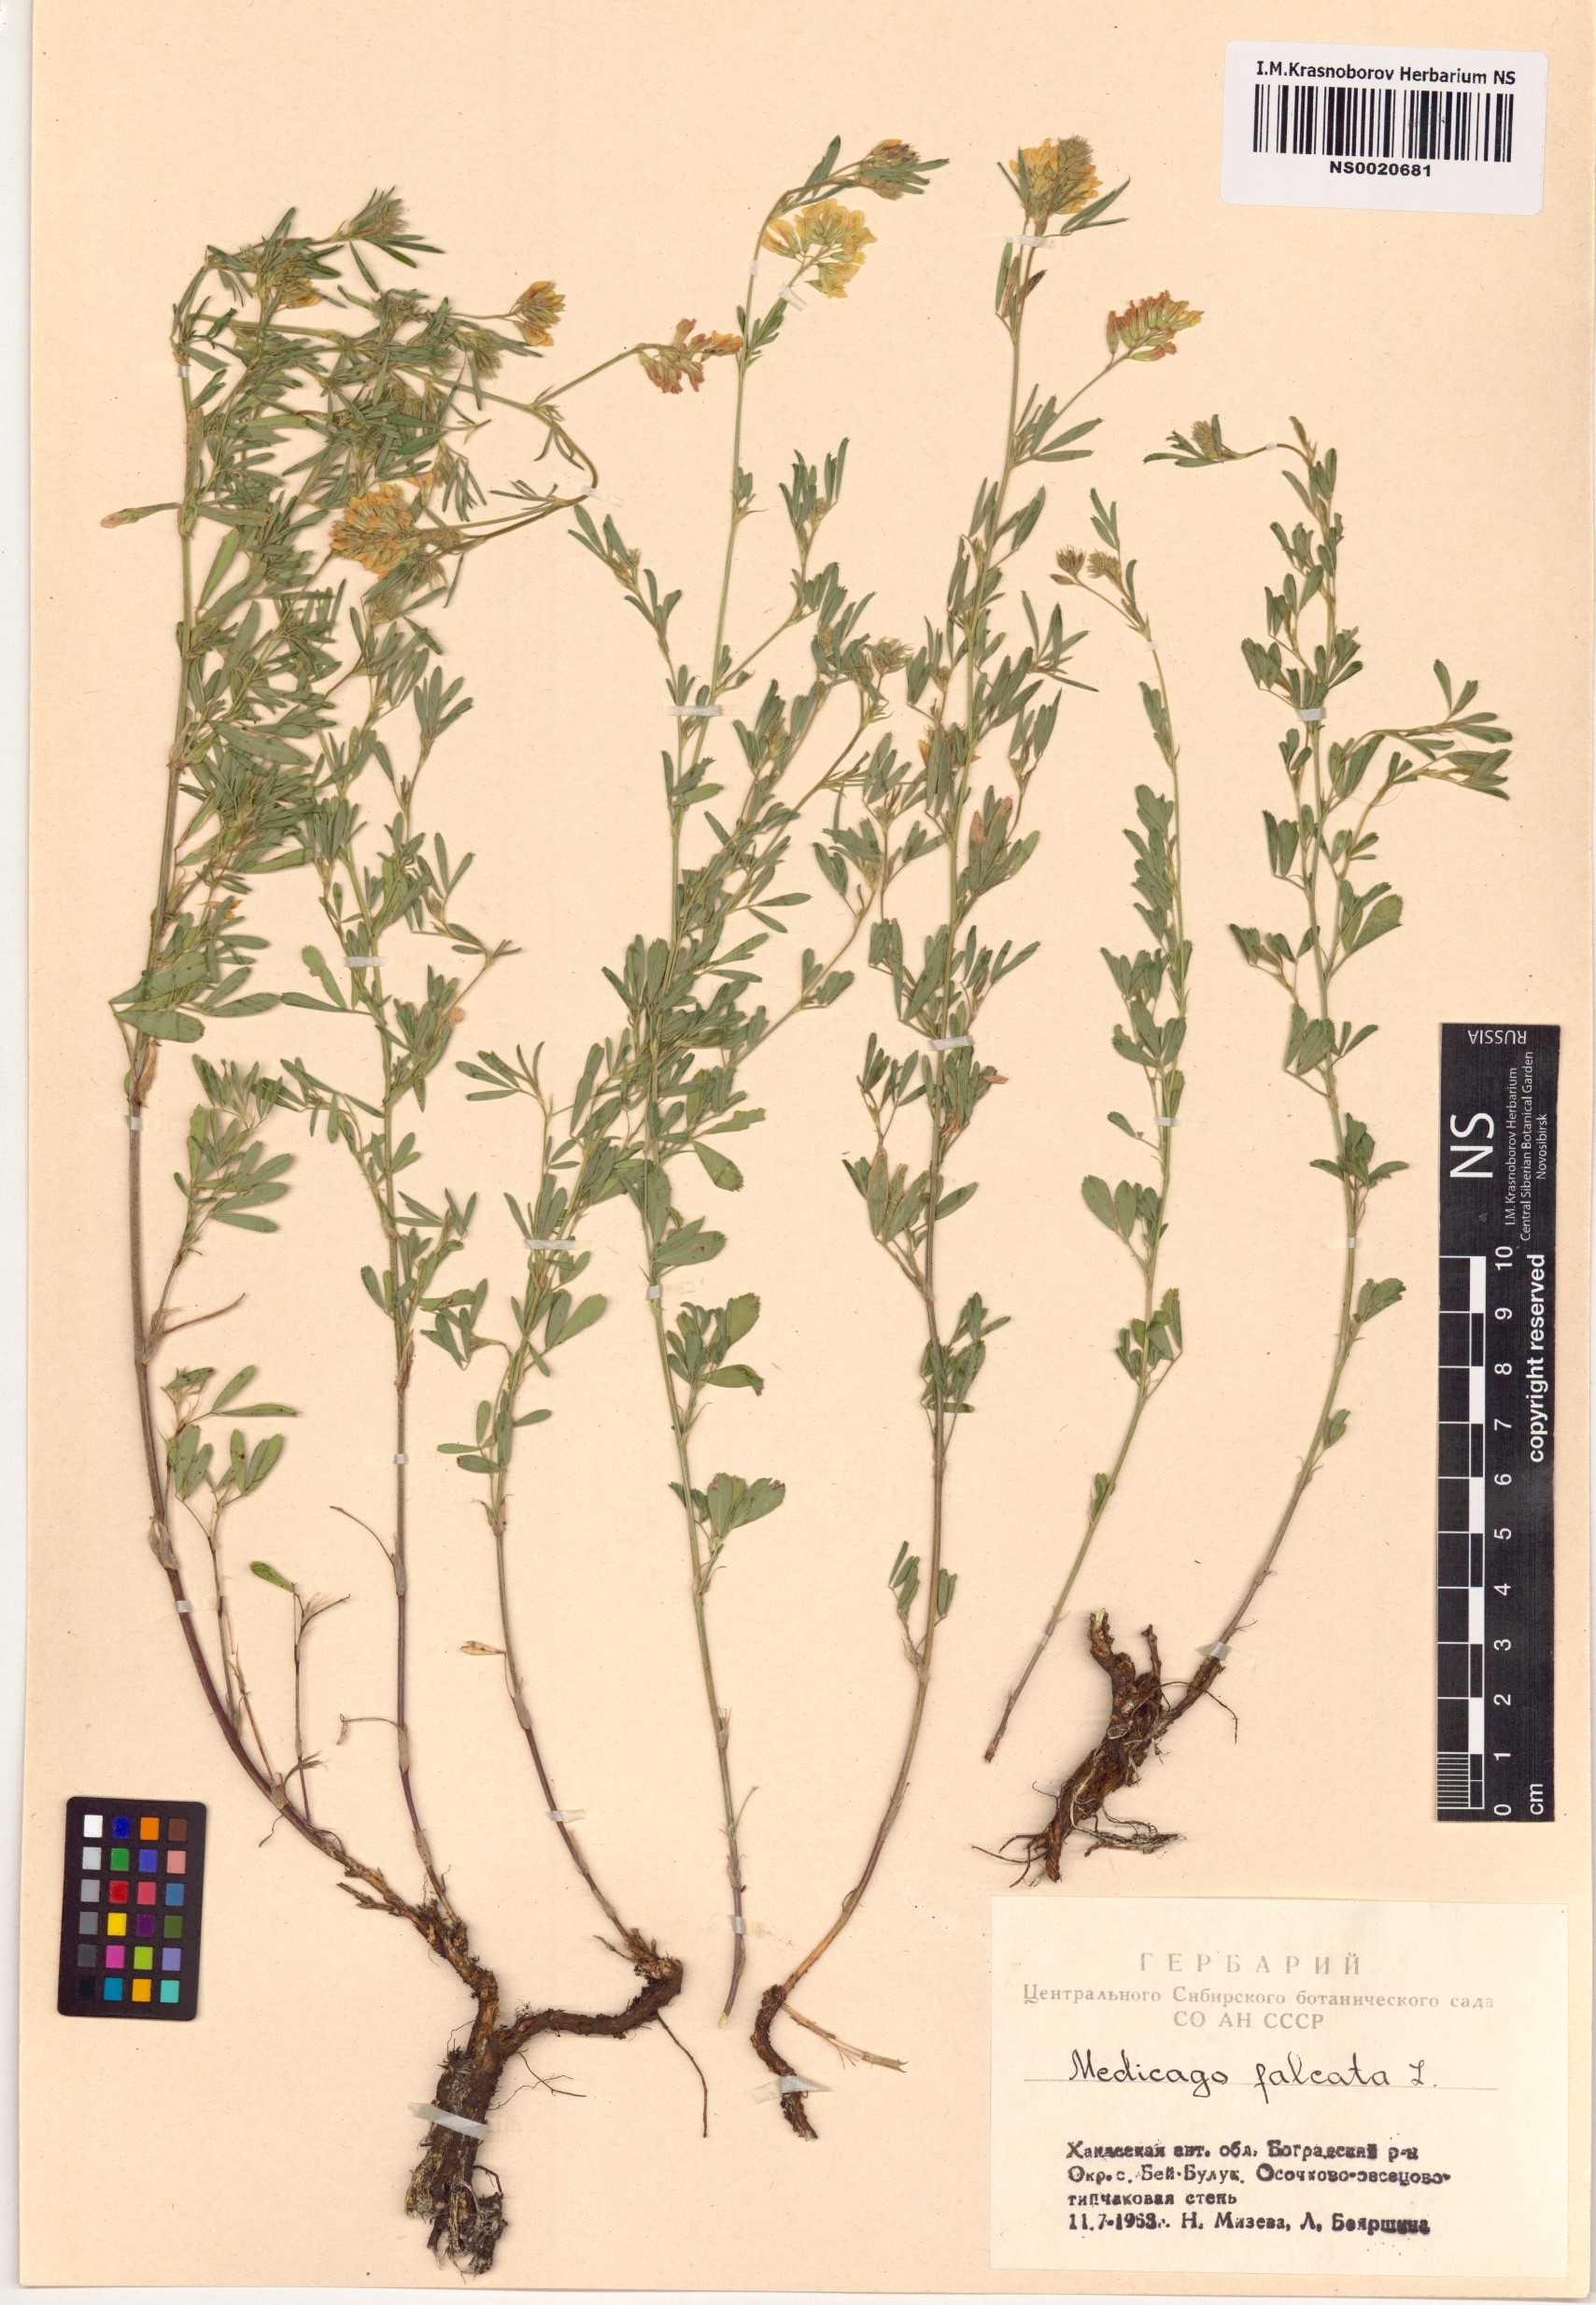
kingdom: Plantae
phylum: Tracheophyta
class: Magnoliopsida
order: Fabales
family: Fabaceae
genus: Medicago
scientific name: Medicago falcata
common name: Sickle medick
